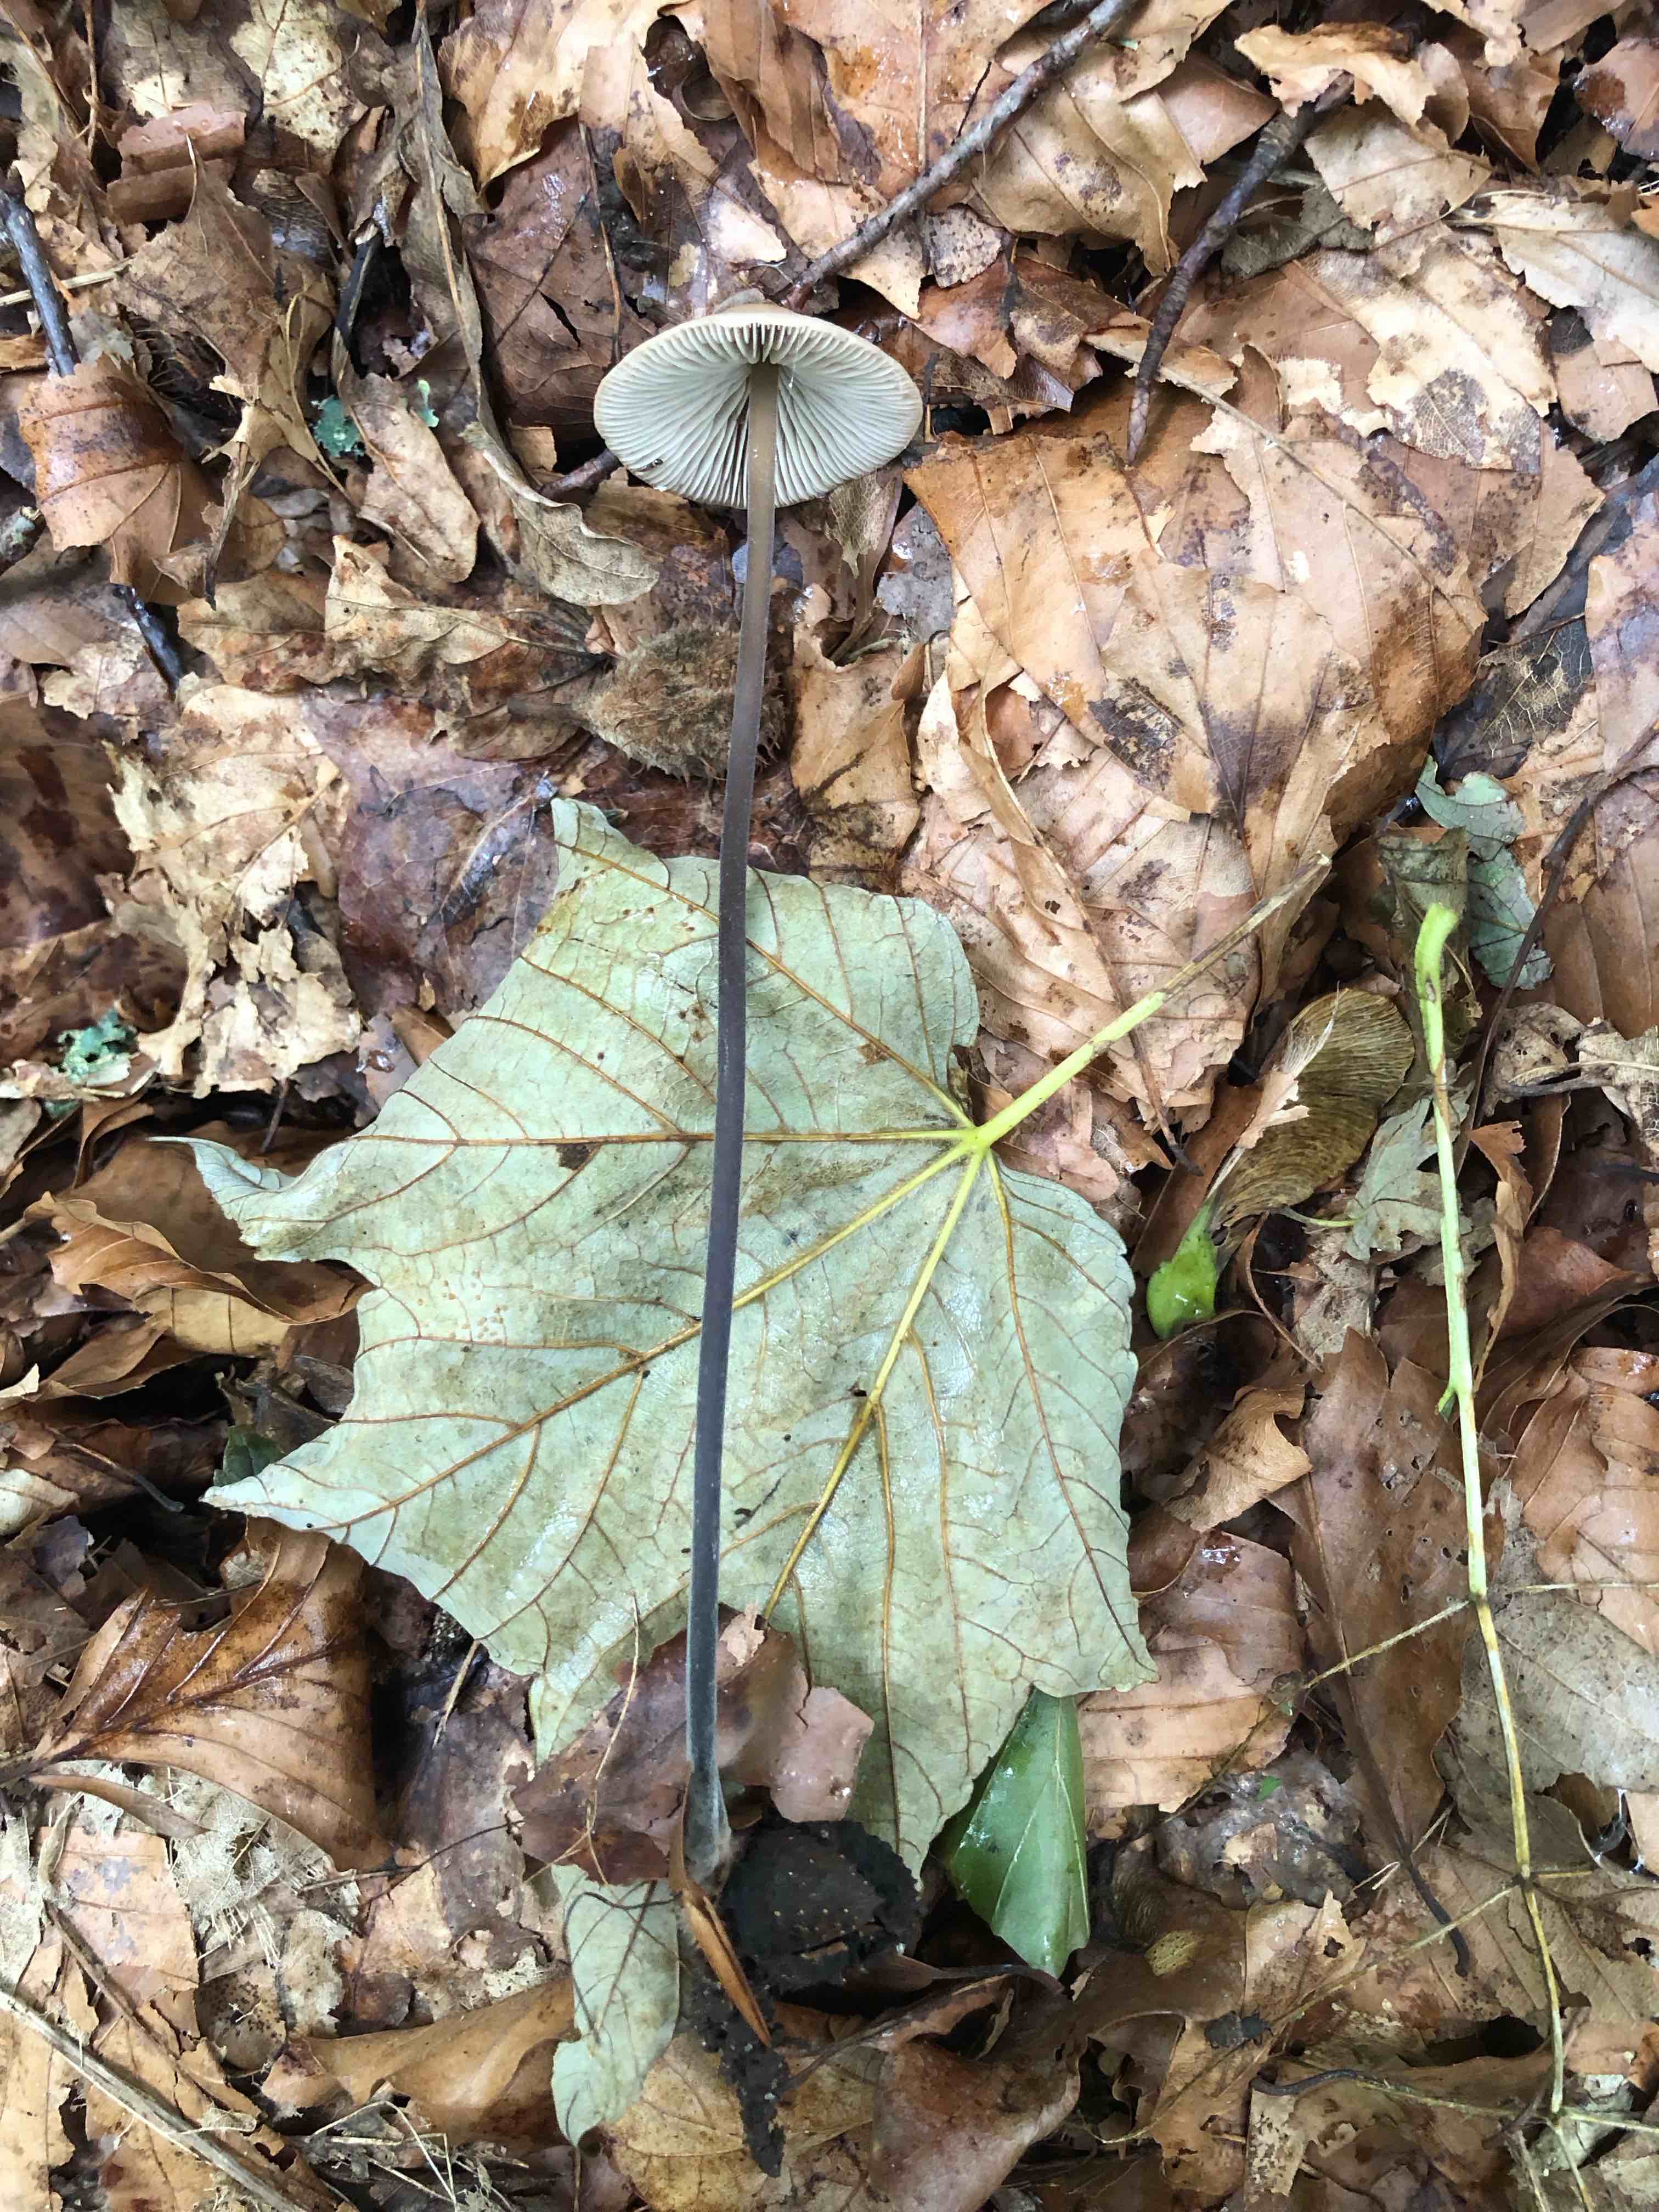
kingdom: Fungi
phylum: Basidiomycota
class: Agaricomycetes
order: Agaricales
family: Omphalotaceae
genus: Mycetinis
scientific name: Mycetinis alliaceus
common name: stor løghat
